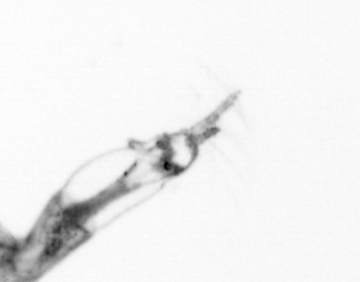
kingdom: Animalia
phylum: Arthropoda
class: Copepoda
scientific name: Copepoda
